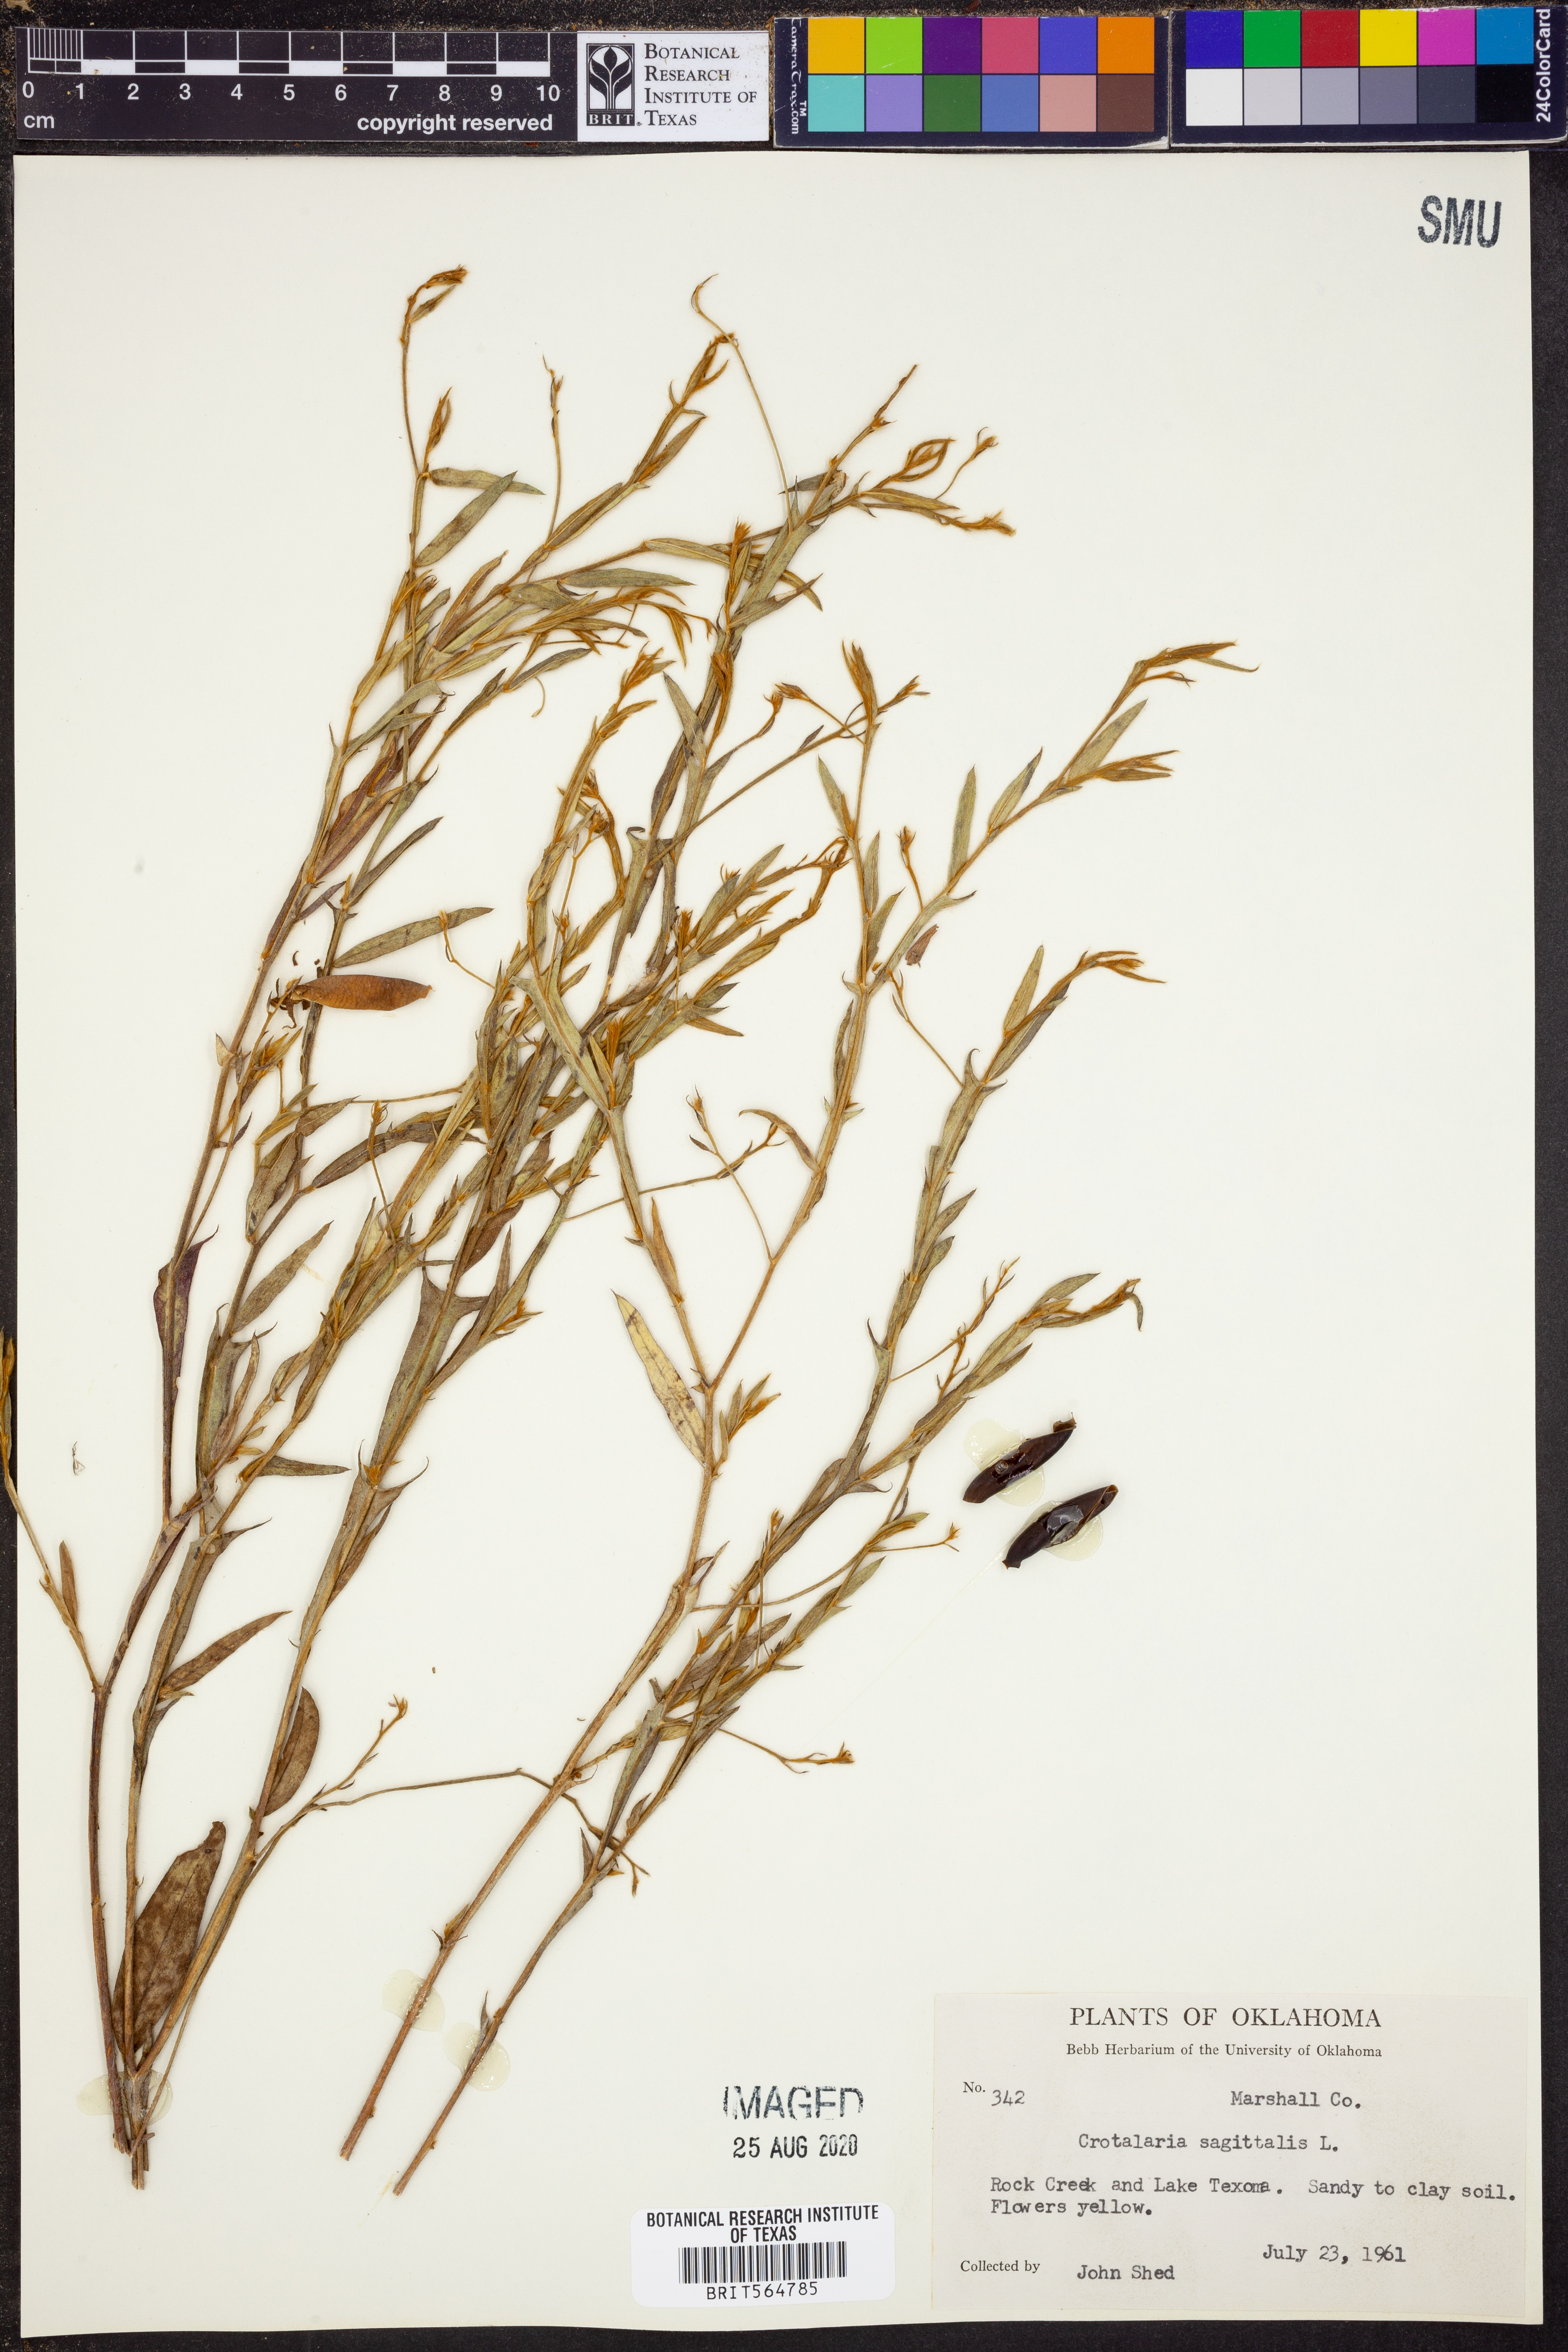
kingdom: Plantae
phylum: Tracheophyta
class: Magnoliopsida
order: Fabales
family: Fabaceae
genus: Crotalaria
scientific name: Crotalaria sagittalis
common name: Arrowhead rattlebox
